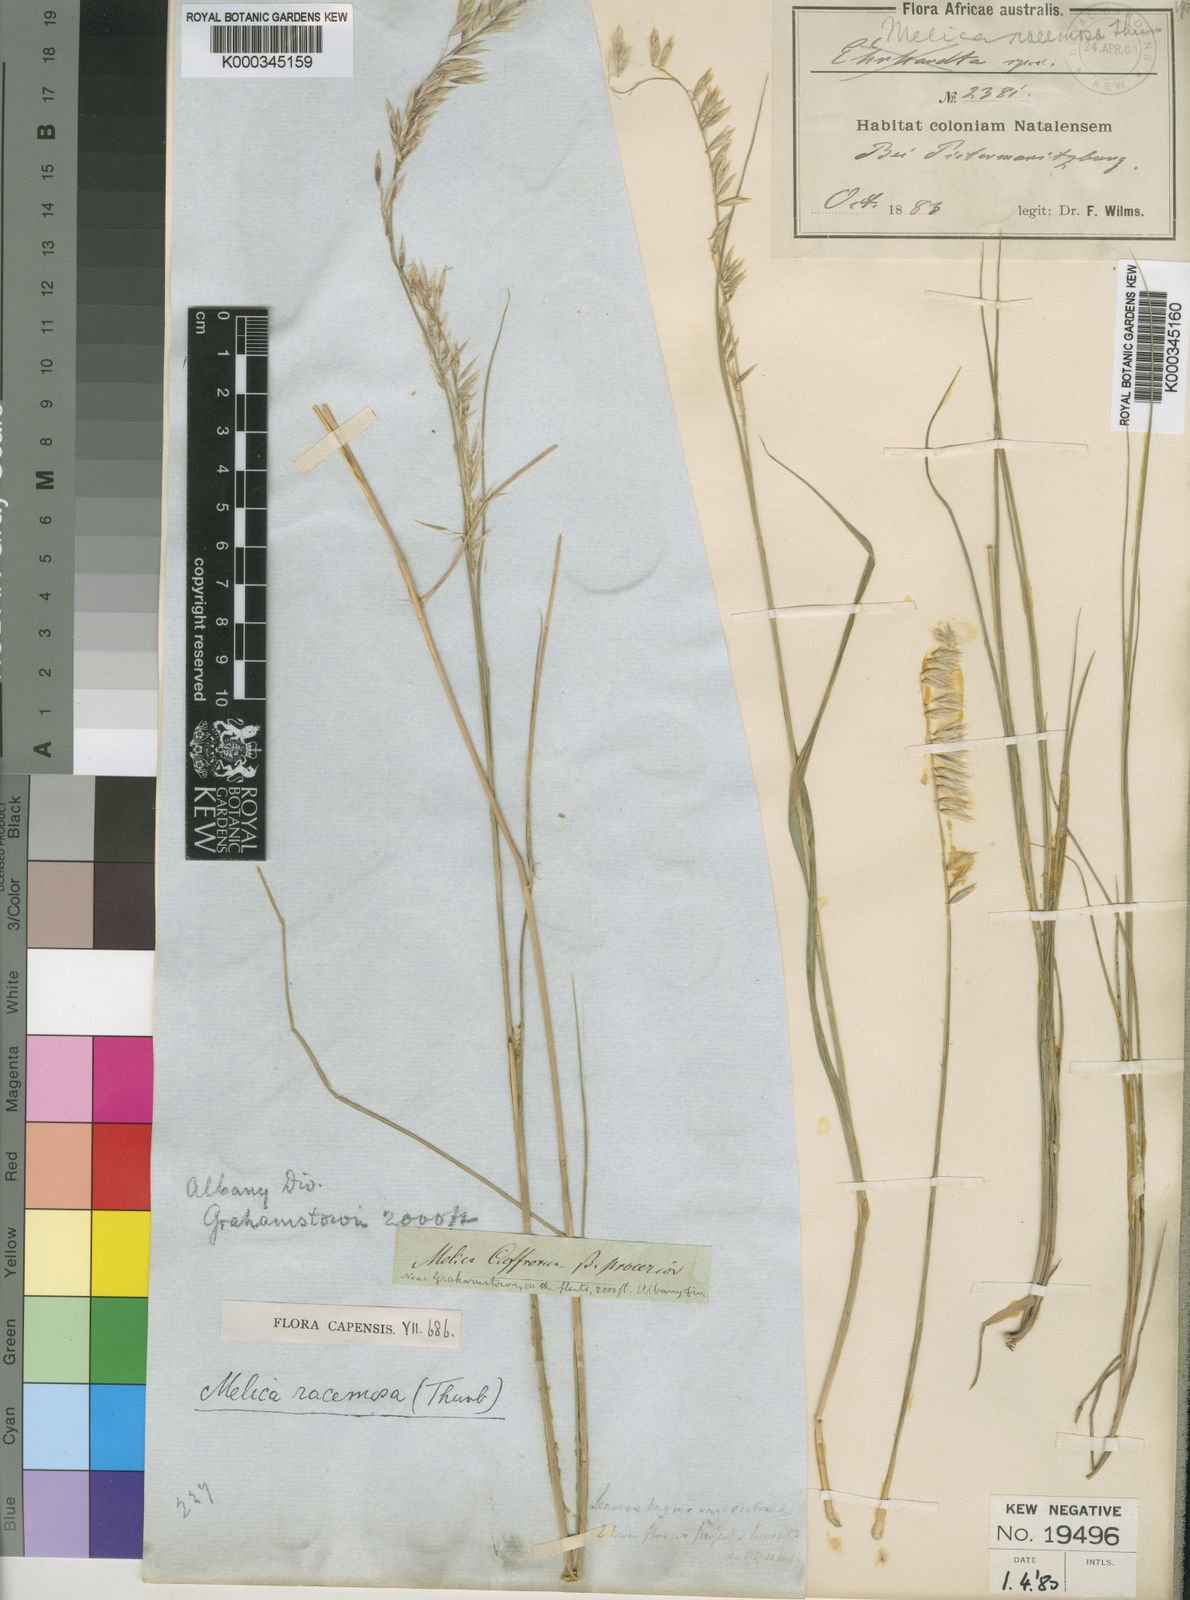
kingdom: Plantae
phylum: Tracheophyta
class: Liliopsida
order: Poales
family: Poaceae
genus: Melica
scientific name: Melica racemosa
